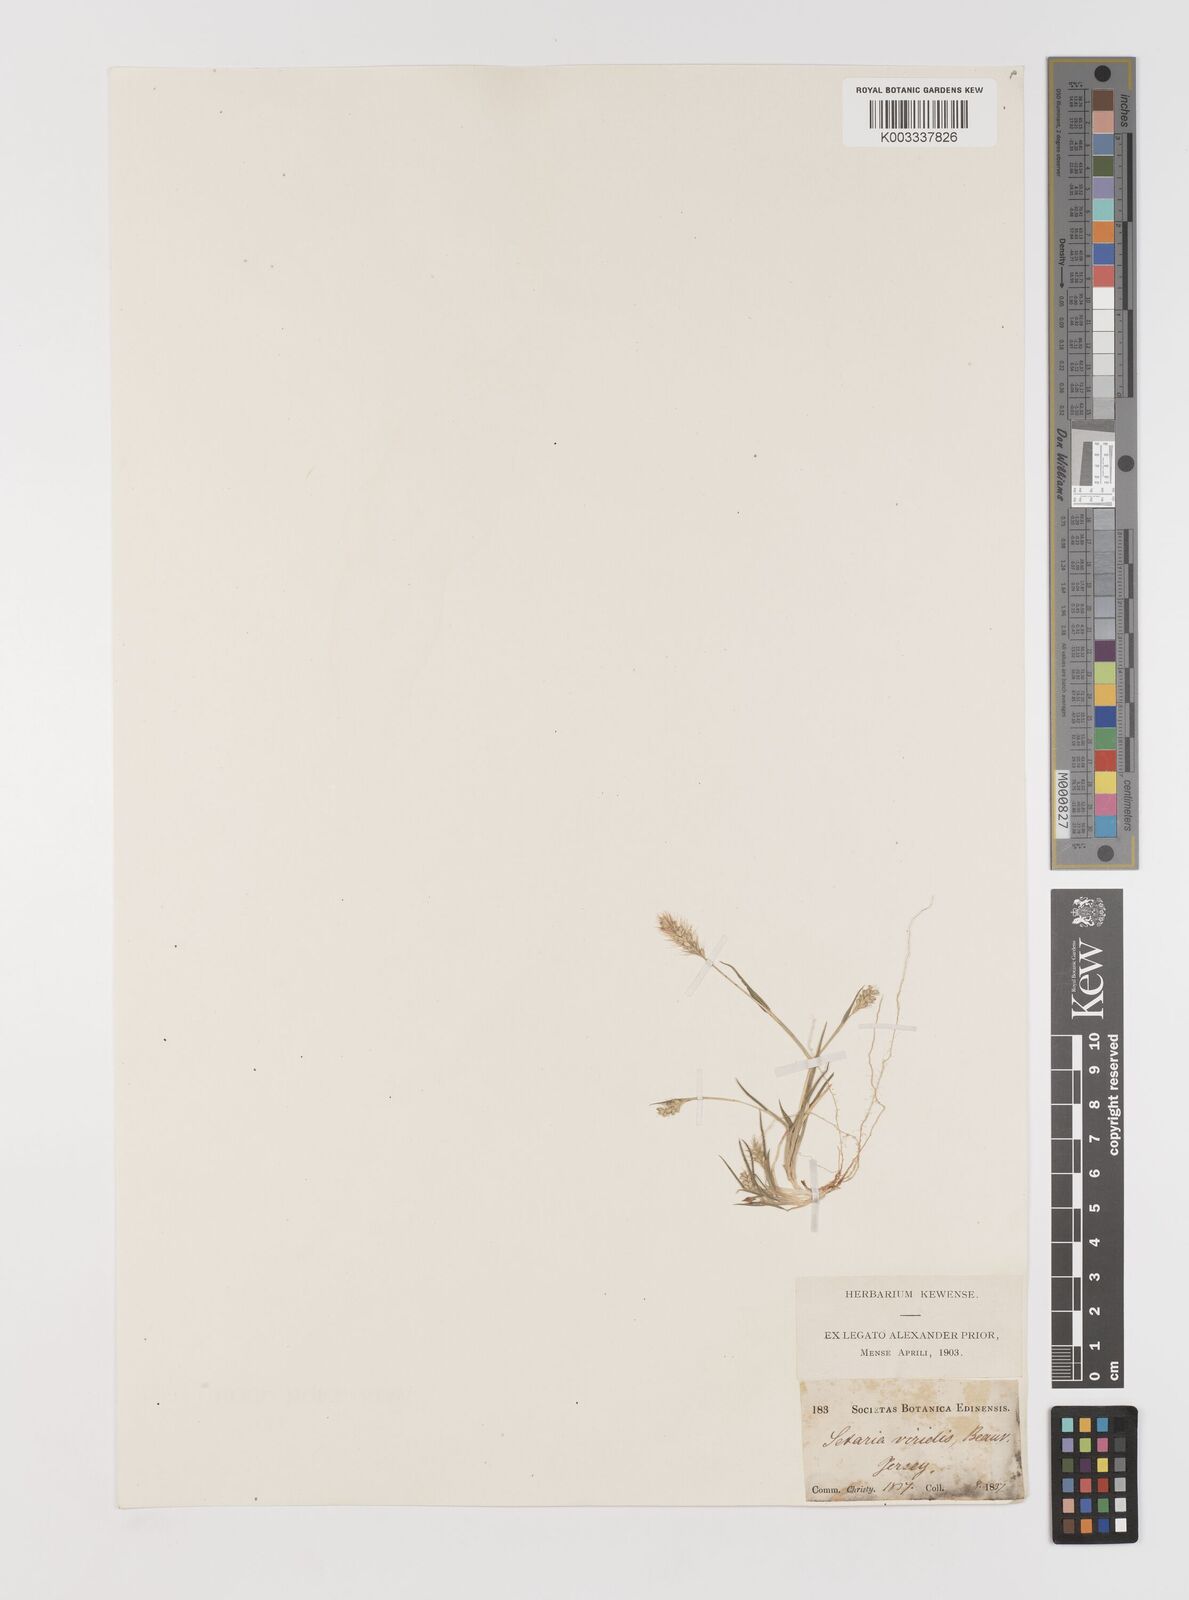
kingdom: Plantae
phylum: Tracheophyta
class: Liliopsida
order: Poales
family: Poaceae
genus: Setaria
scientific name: Setaria viridis
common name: Green bristlegrass
